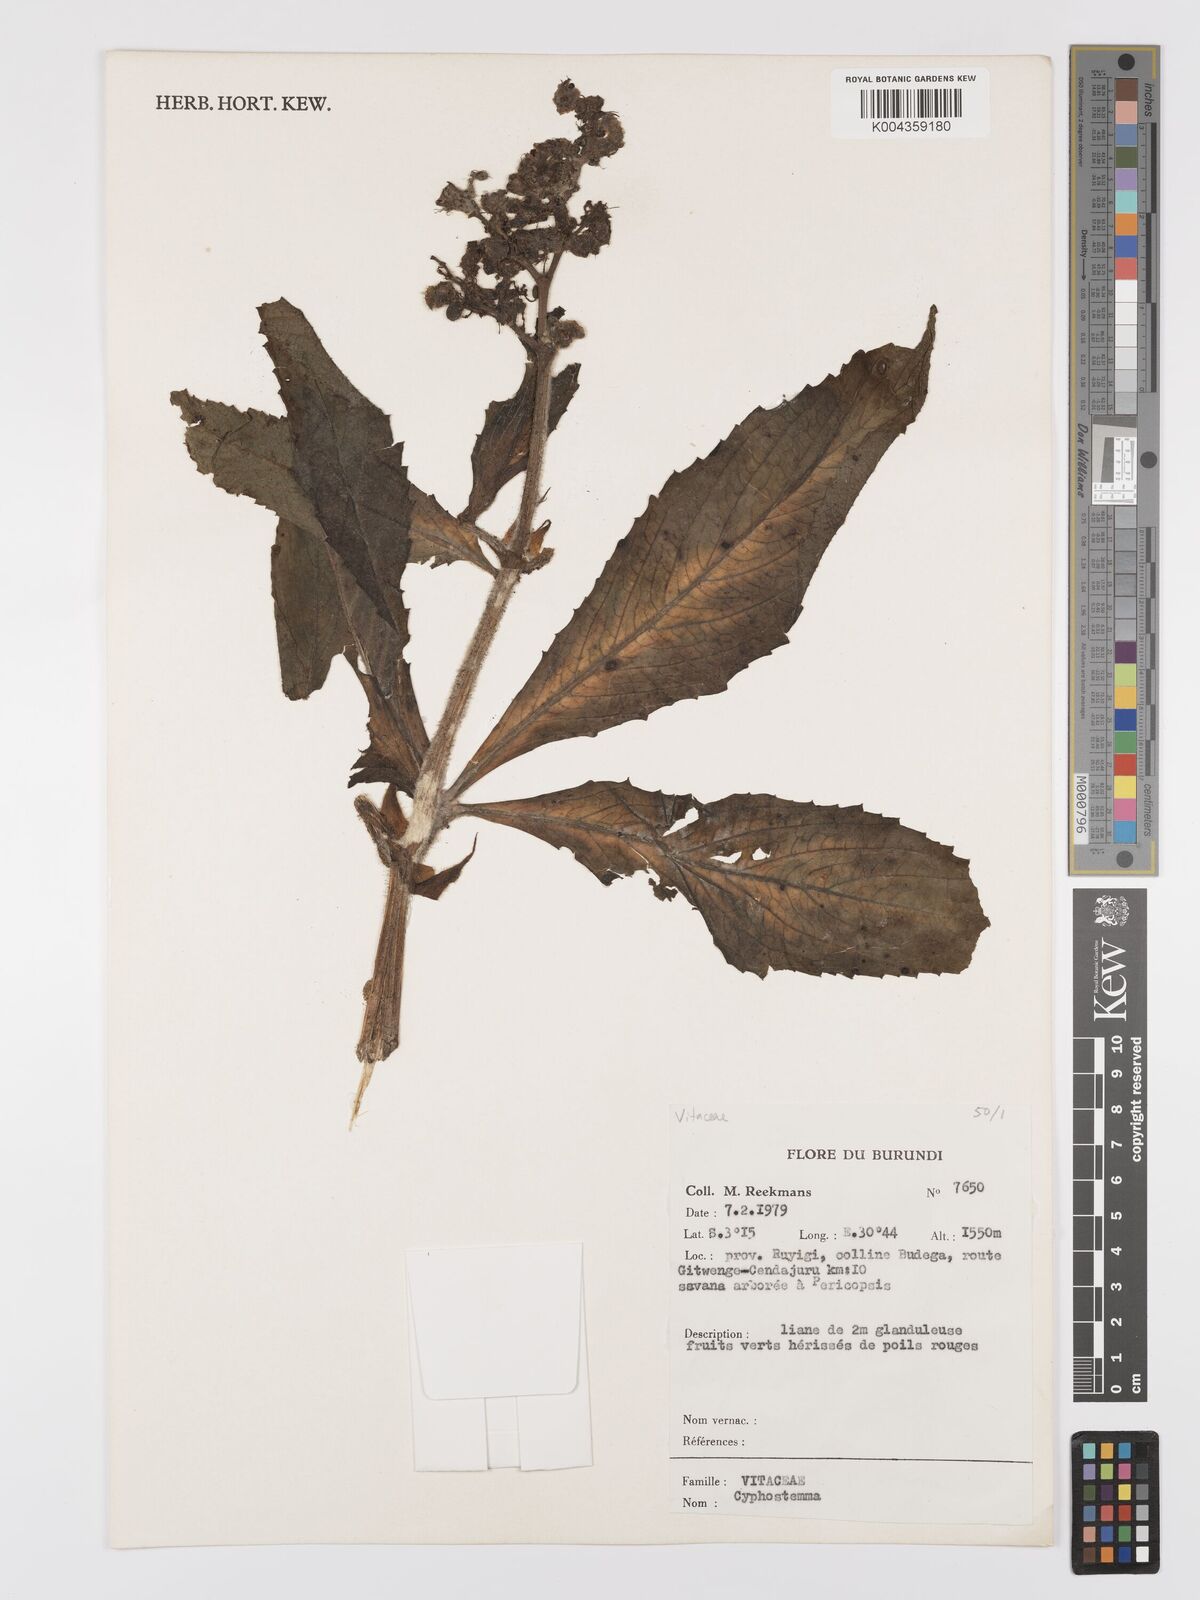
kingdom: Plantae
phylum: Tracheophyta
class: Magnoliopsida
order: Vitales
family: Vitaceae
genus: Cyphostemma
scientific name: Cyphostemma
